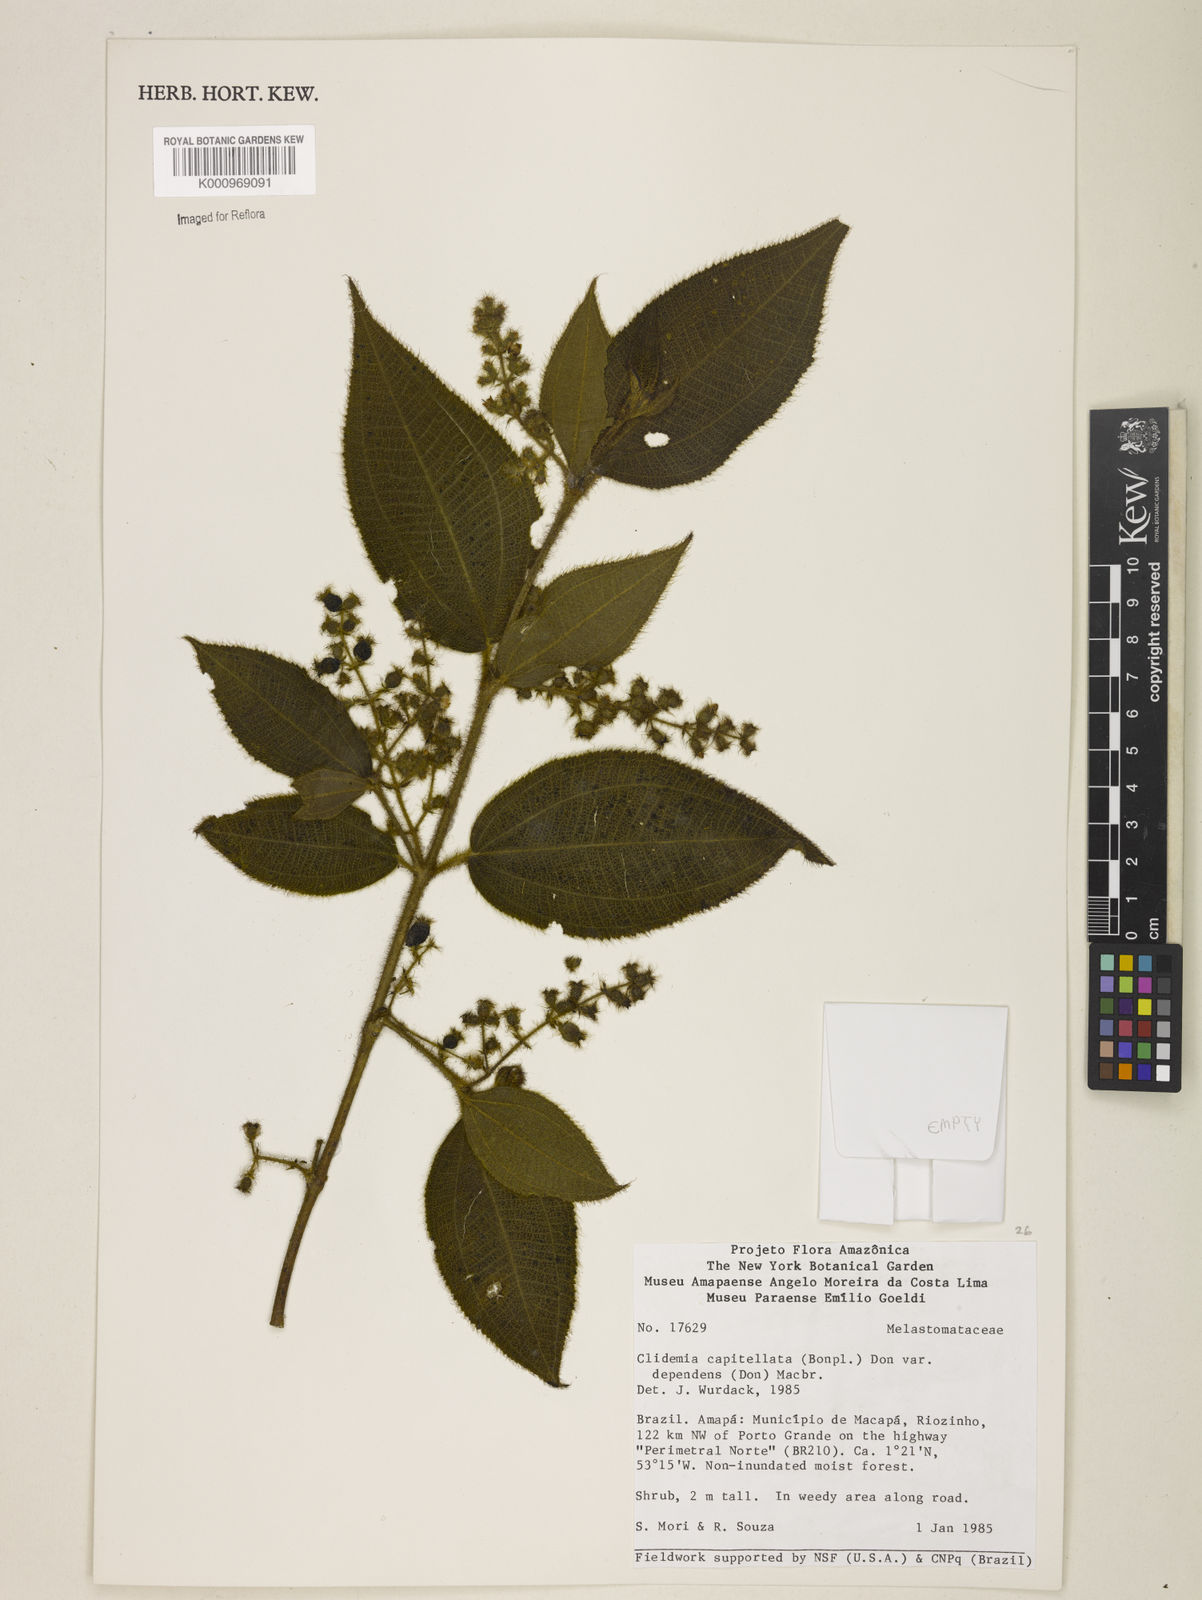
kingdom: Plantae
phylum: Tracheophyta
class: Magnoliopsida
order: Myrtales
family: Melastomataceae
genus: Miconia
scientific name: Miconia dependens
